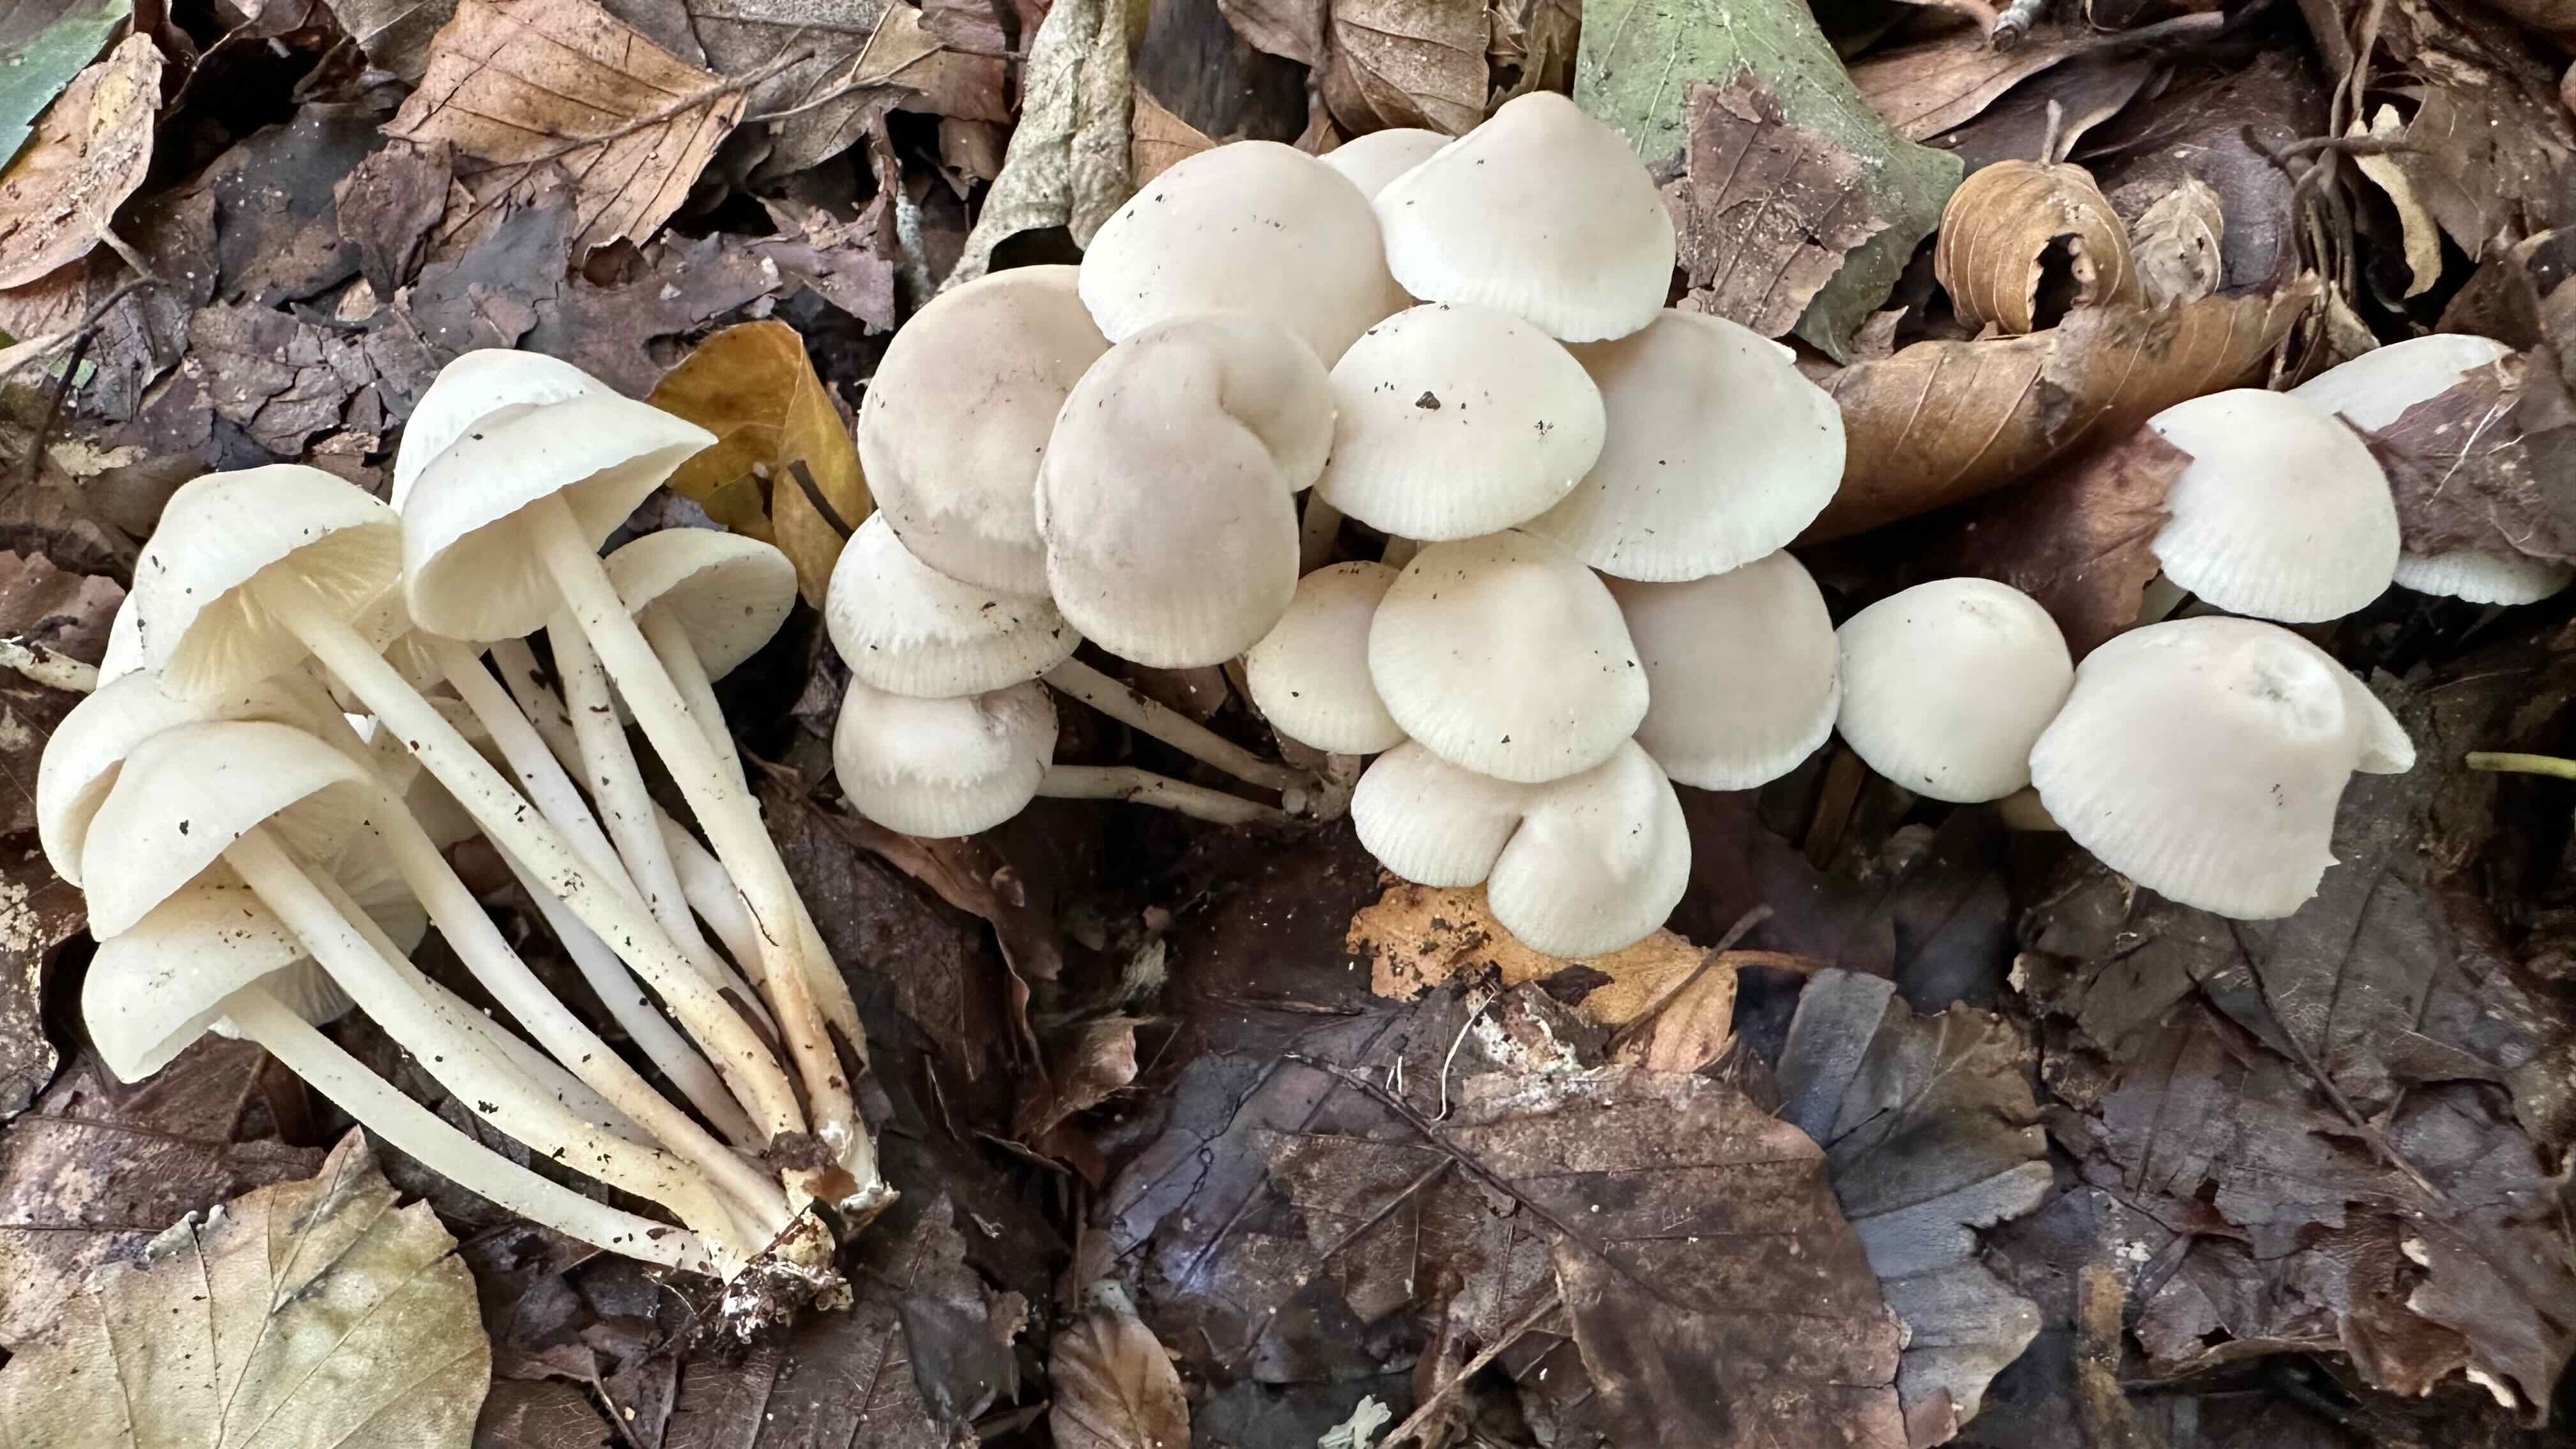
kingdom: Fungi
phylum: Basidiomycota
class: Agaricomycetes
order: Agaricales
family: Marasmiaceae
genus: Marasmius
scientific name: Marasmius wynneae
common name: hvælvet bruskhat
